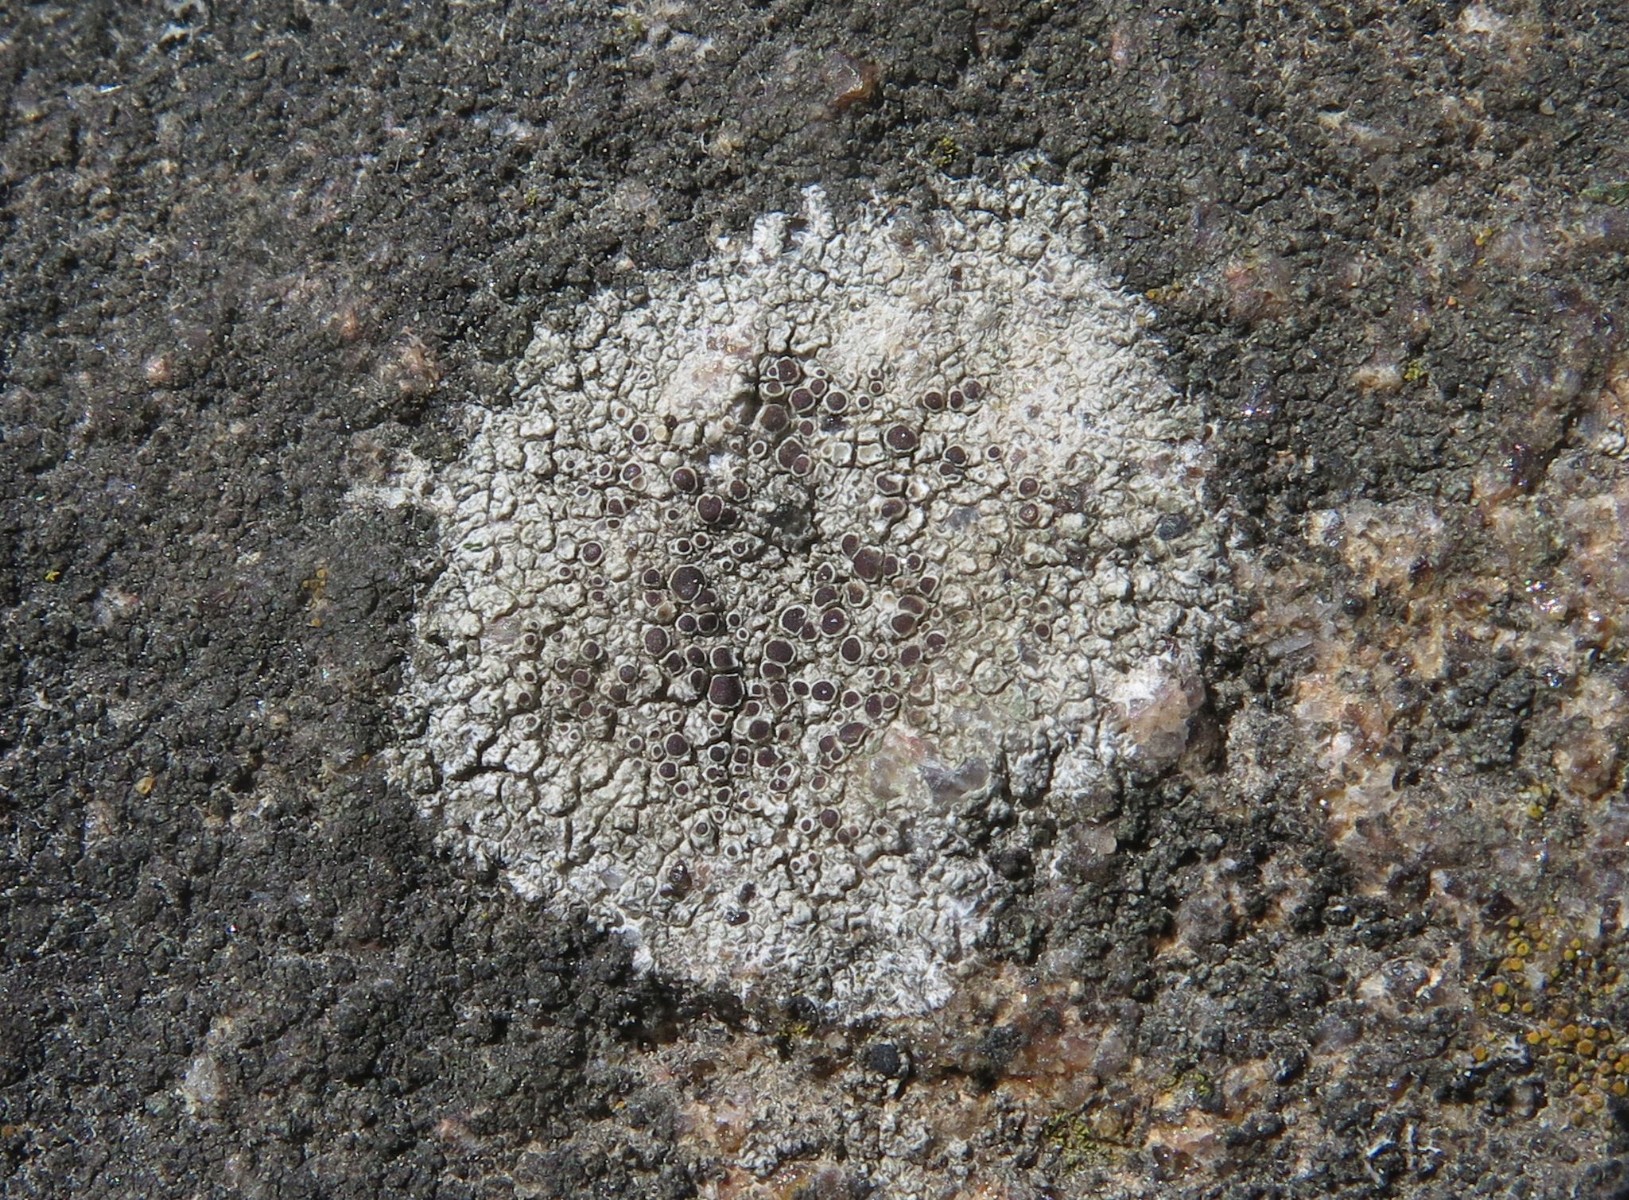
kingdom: Fungi
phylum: Ascomycota
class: Lecanoromycetes
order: Lecanorales
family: Lecanoraceae
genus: Lecanora
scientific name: Lecanora campestris
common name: mur-kantskivelav
